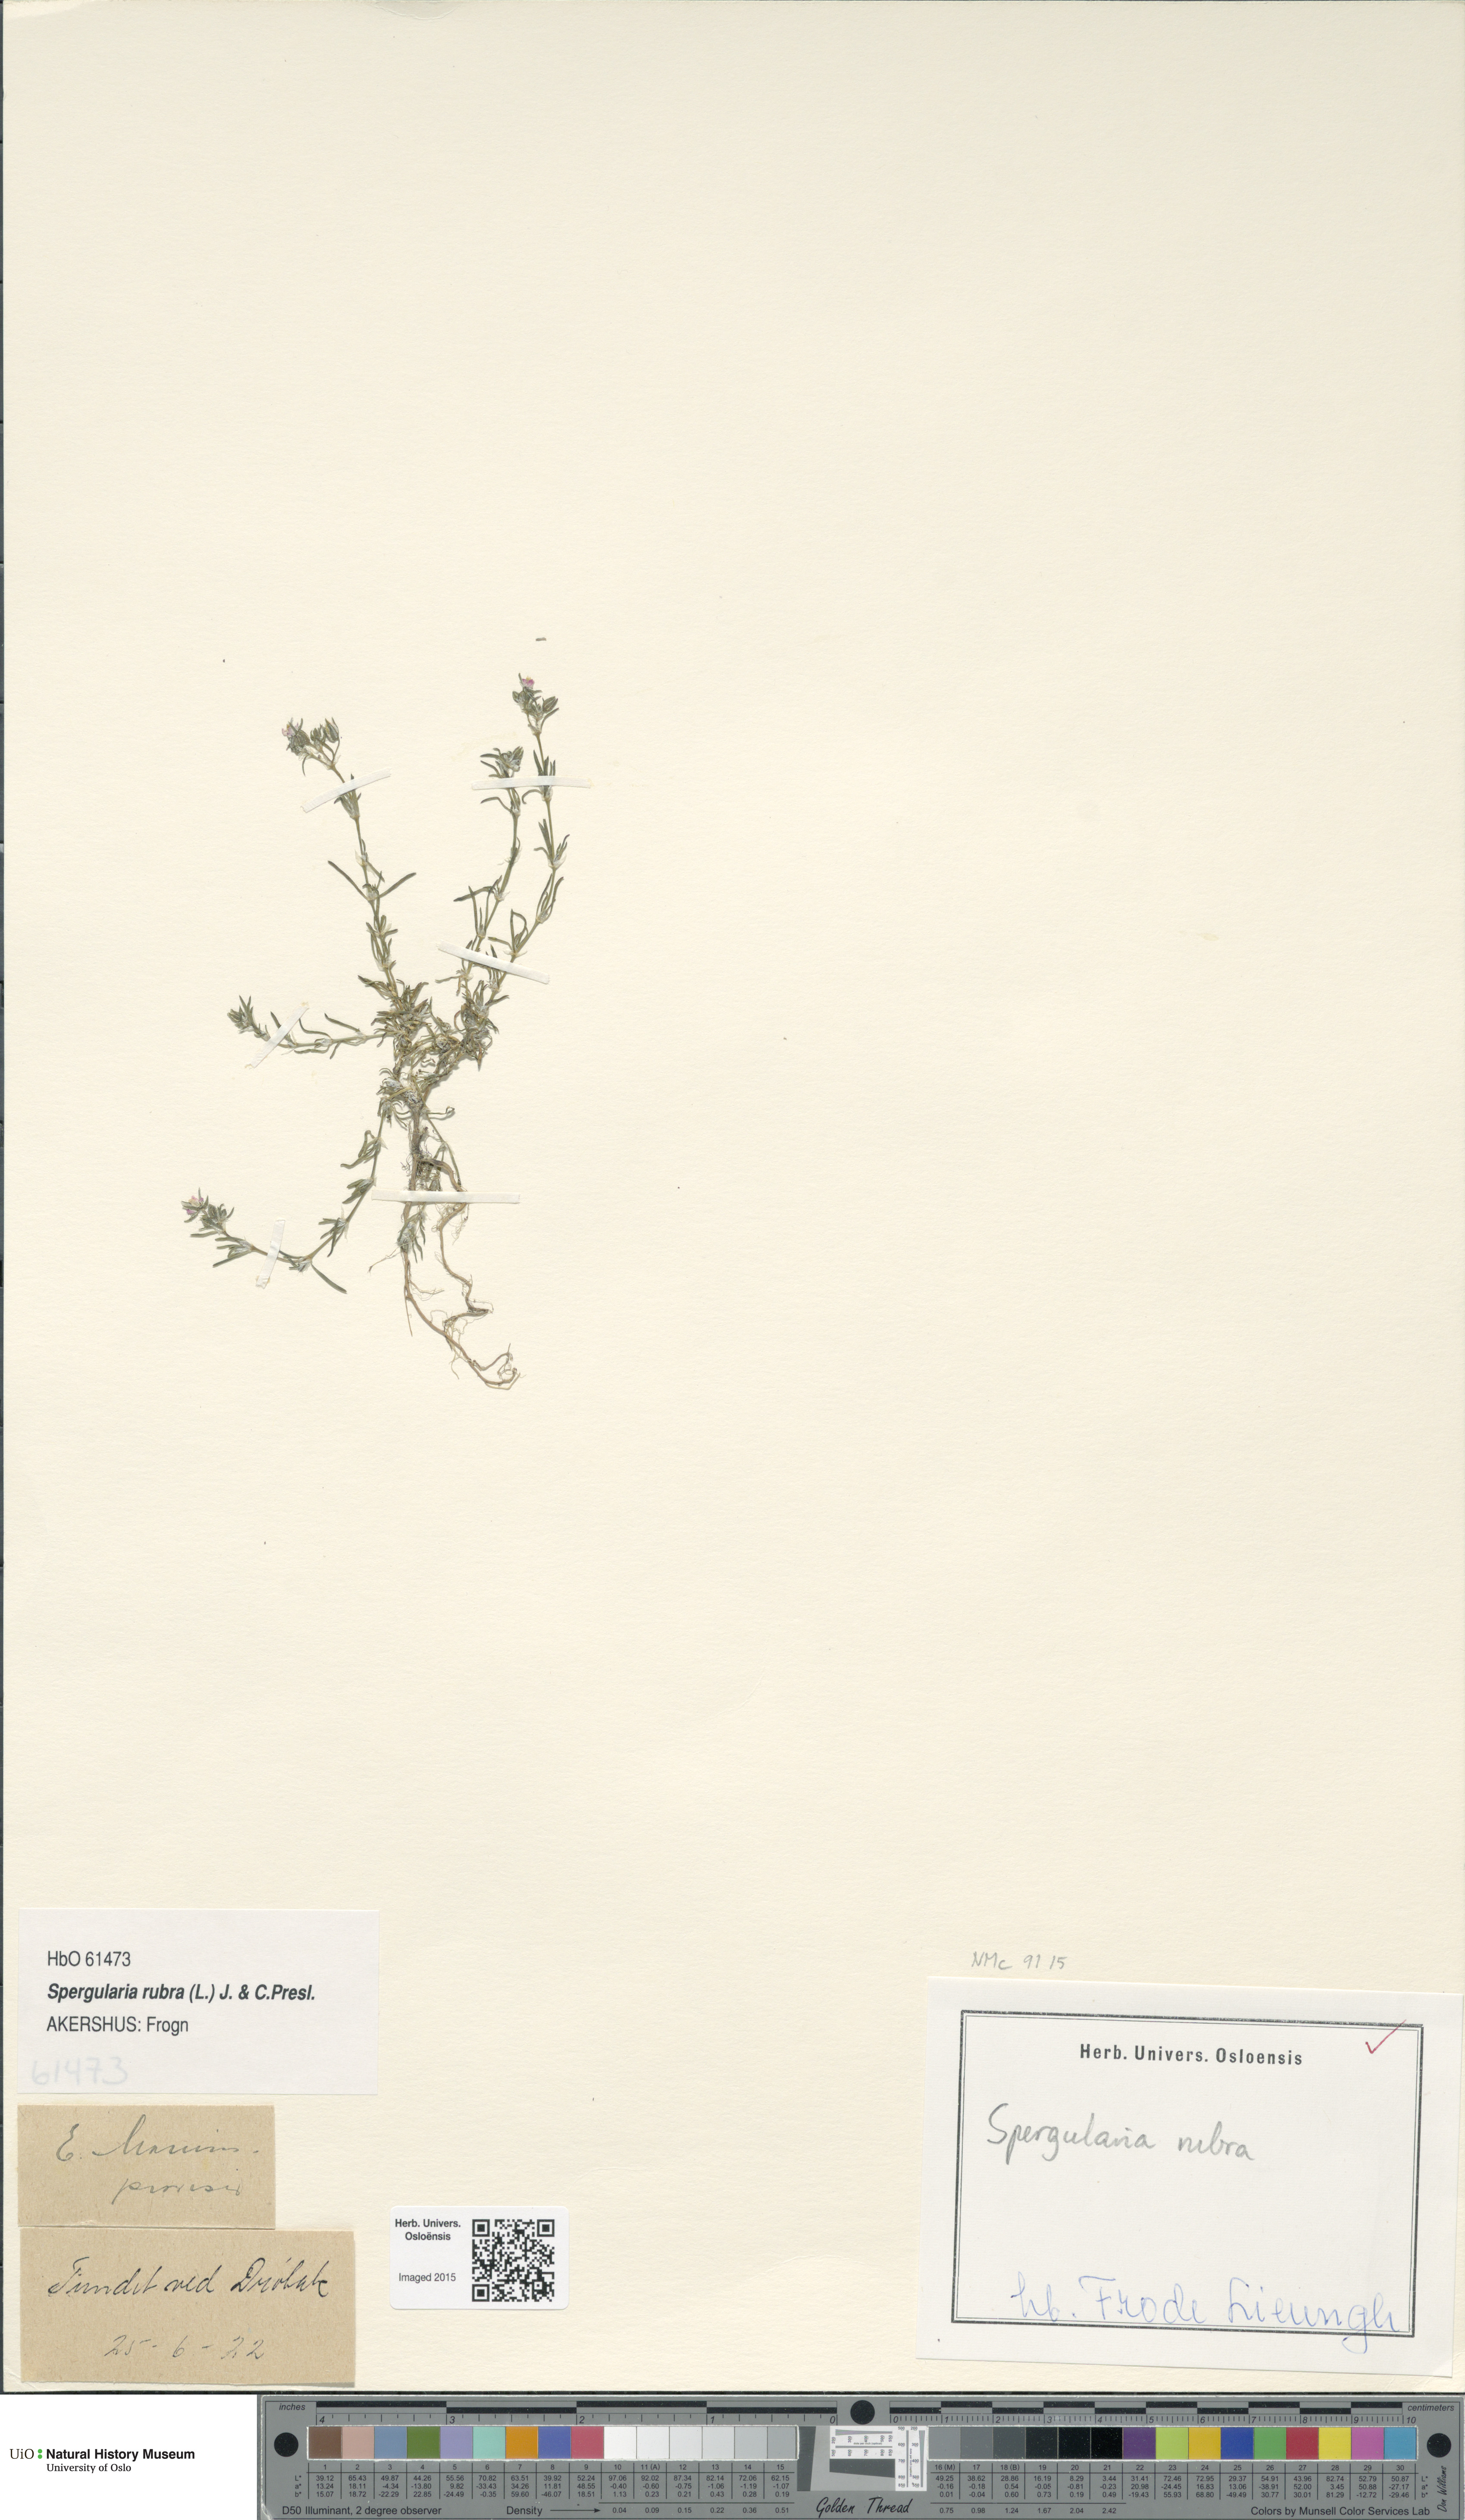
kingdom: Plantae
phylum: Tracheophyta
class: Magnoliopsida
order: Caryophyllales
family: Caryophyllaceae
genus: Spergularia
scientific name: Spergularia rubra
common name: Red sand-spurrey
